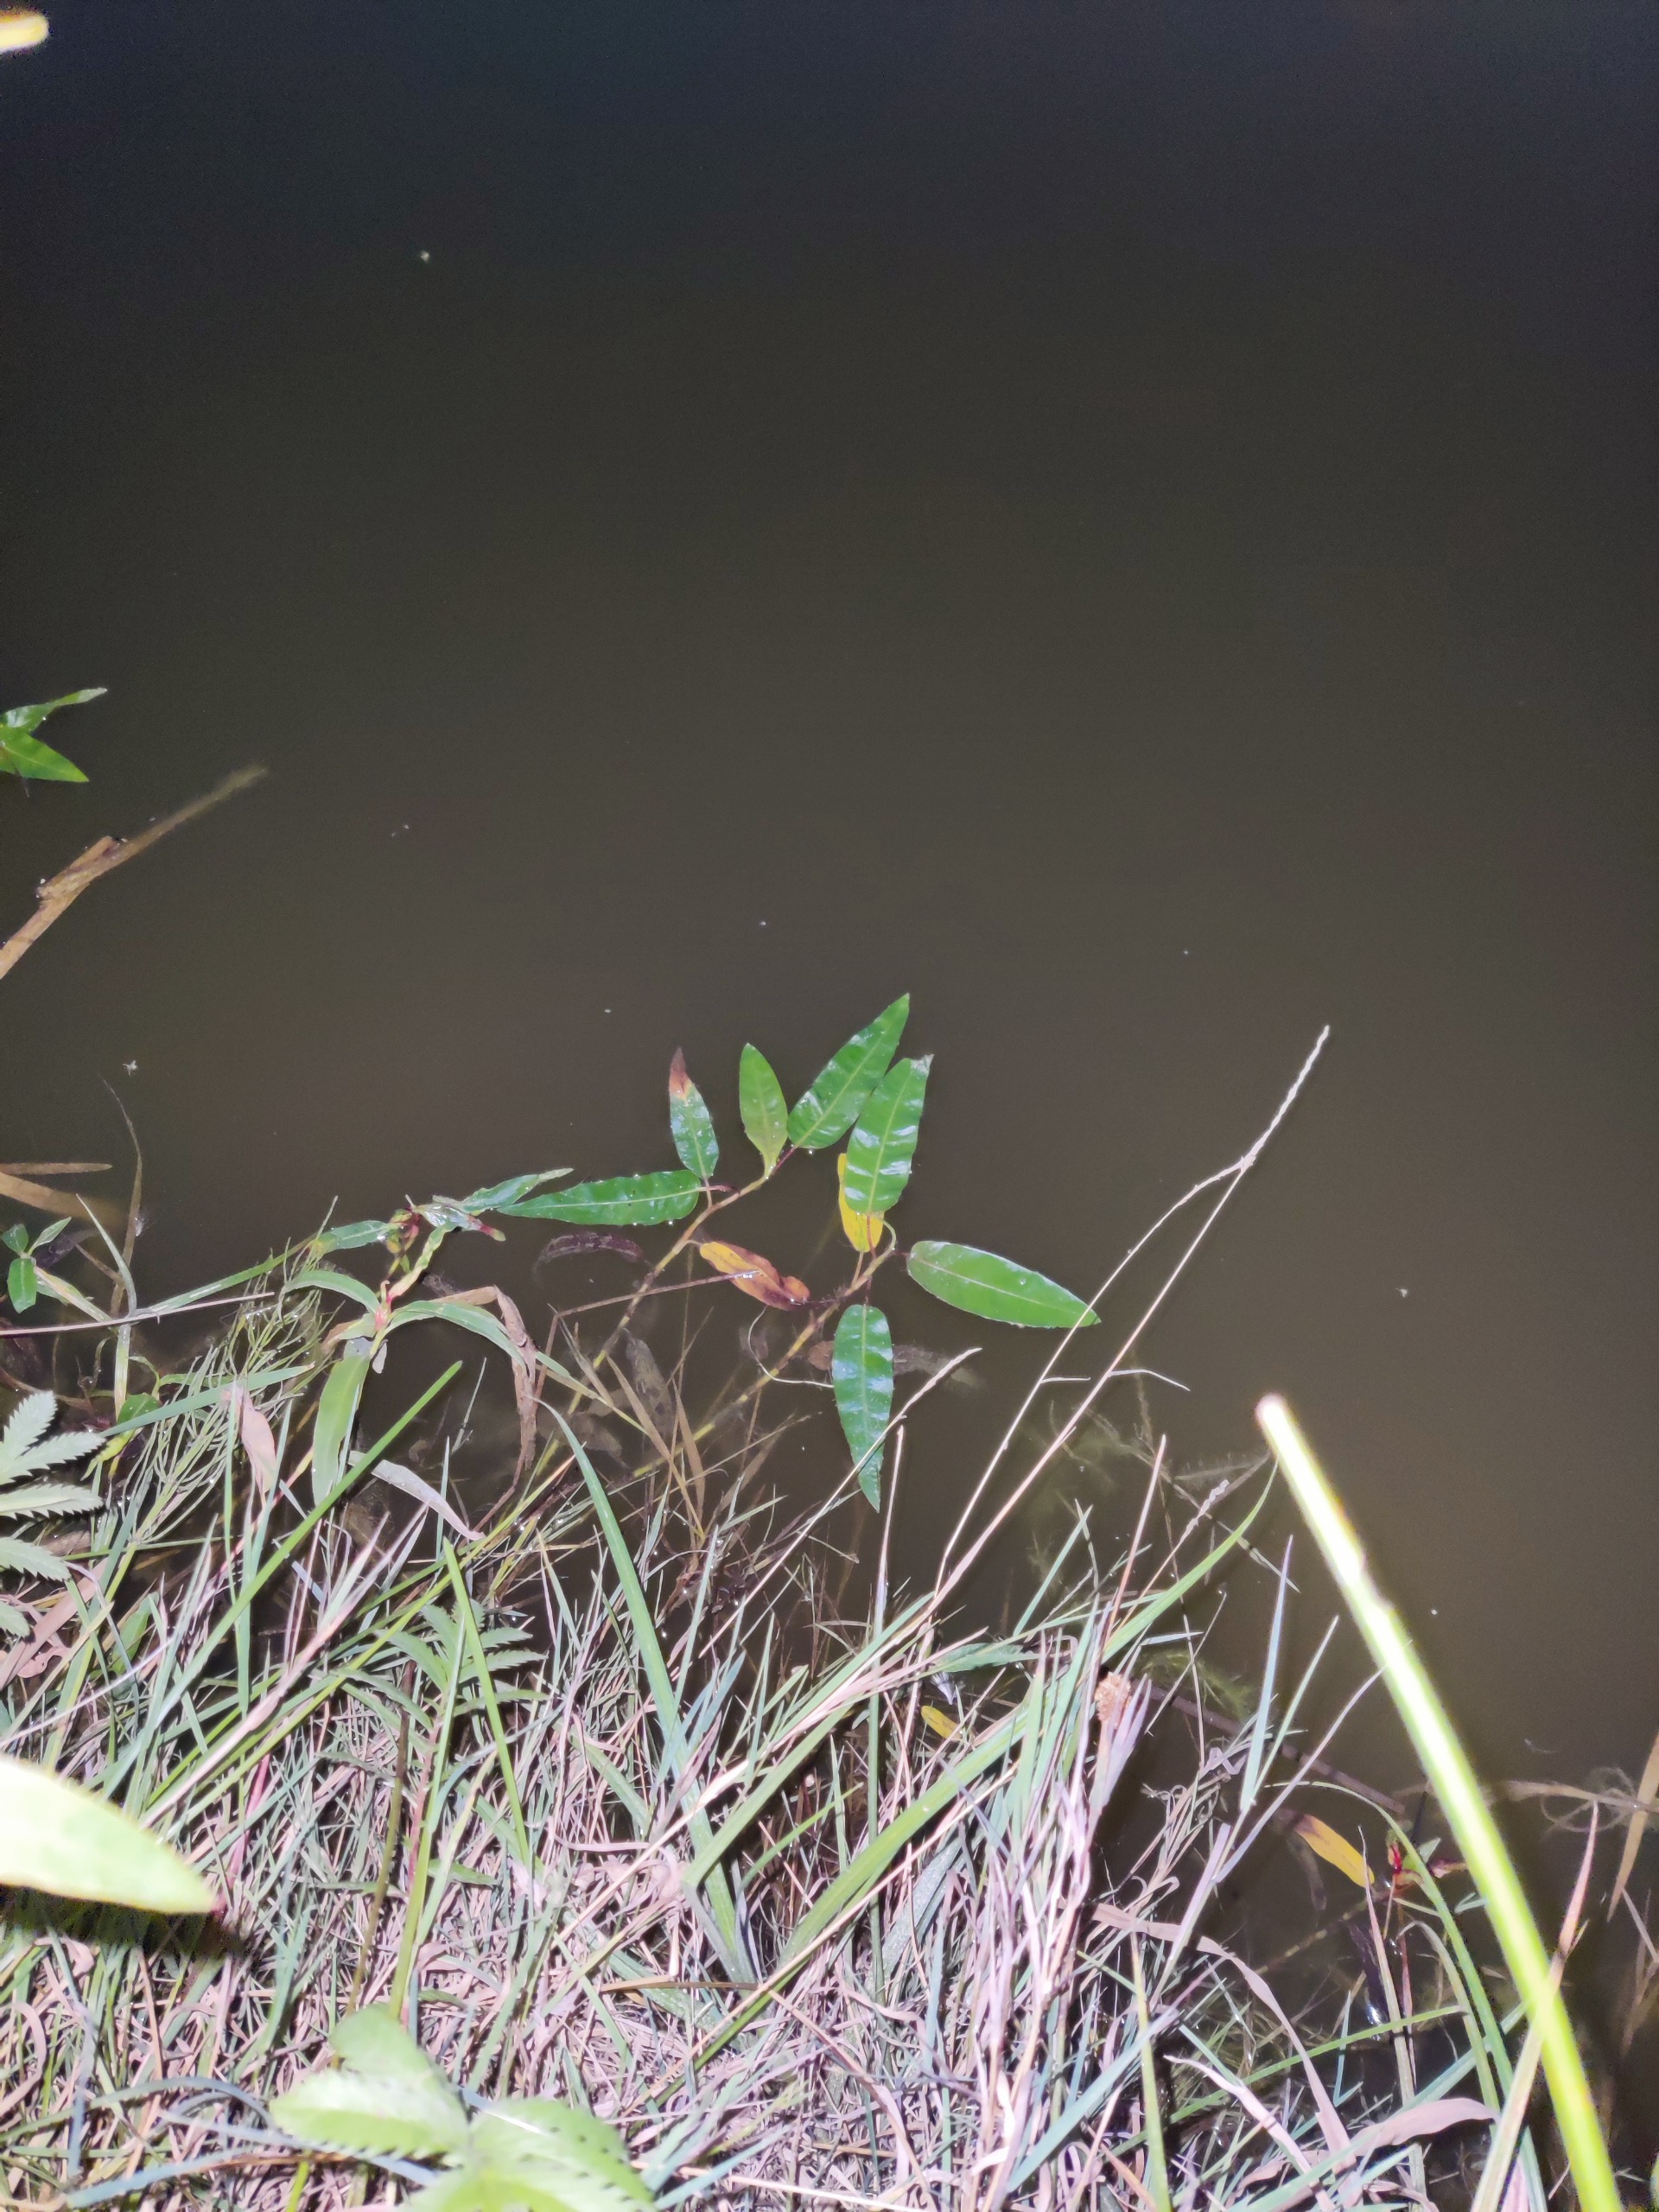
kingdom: Plantae
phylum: Tracheophyta
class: Magnoliopsida
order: Caryophyllales
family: Polygonaceae
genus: Persicaria
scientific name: Persicaria amphibia
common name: Vand-pileurt
